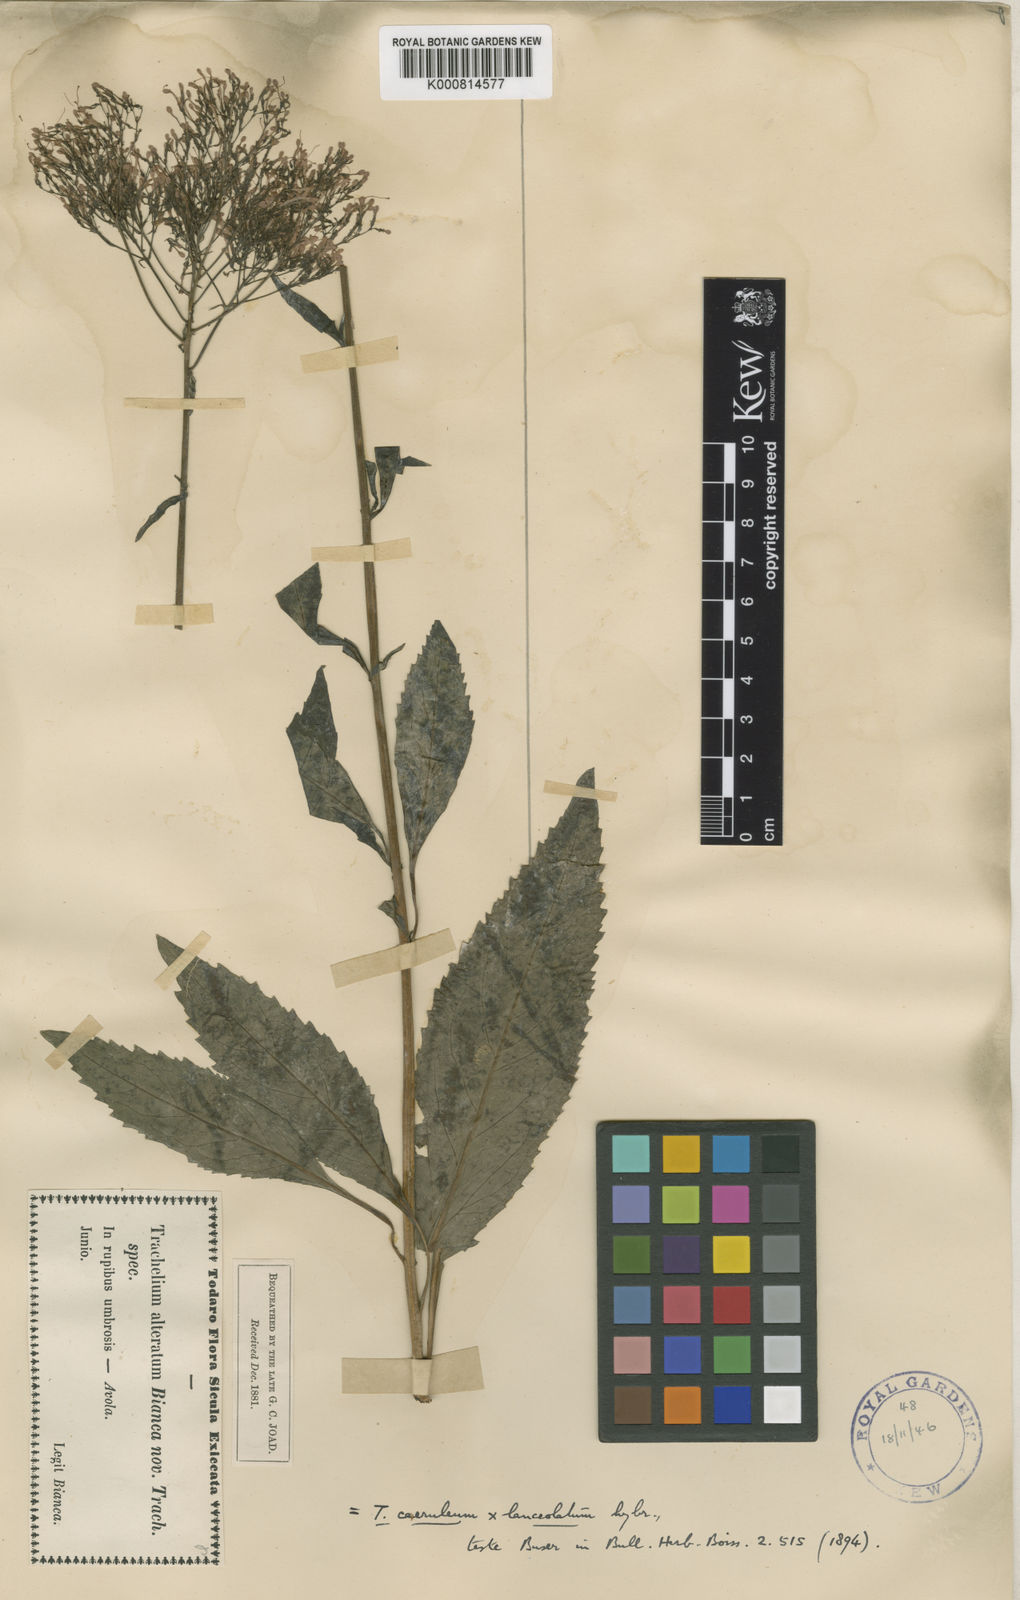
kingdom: Plantae
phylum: Tracheophyta
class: Magnoliopsida
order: Asterales
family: Campanulaceae
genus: Trachelium
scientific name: Trachelium caeruleum
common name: Throatwort
